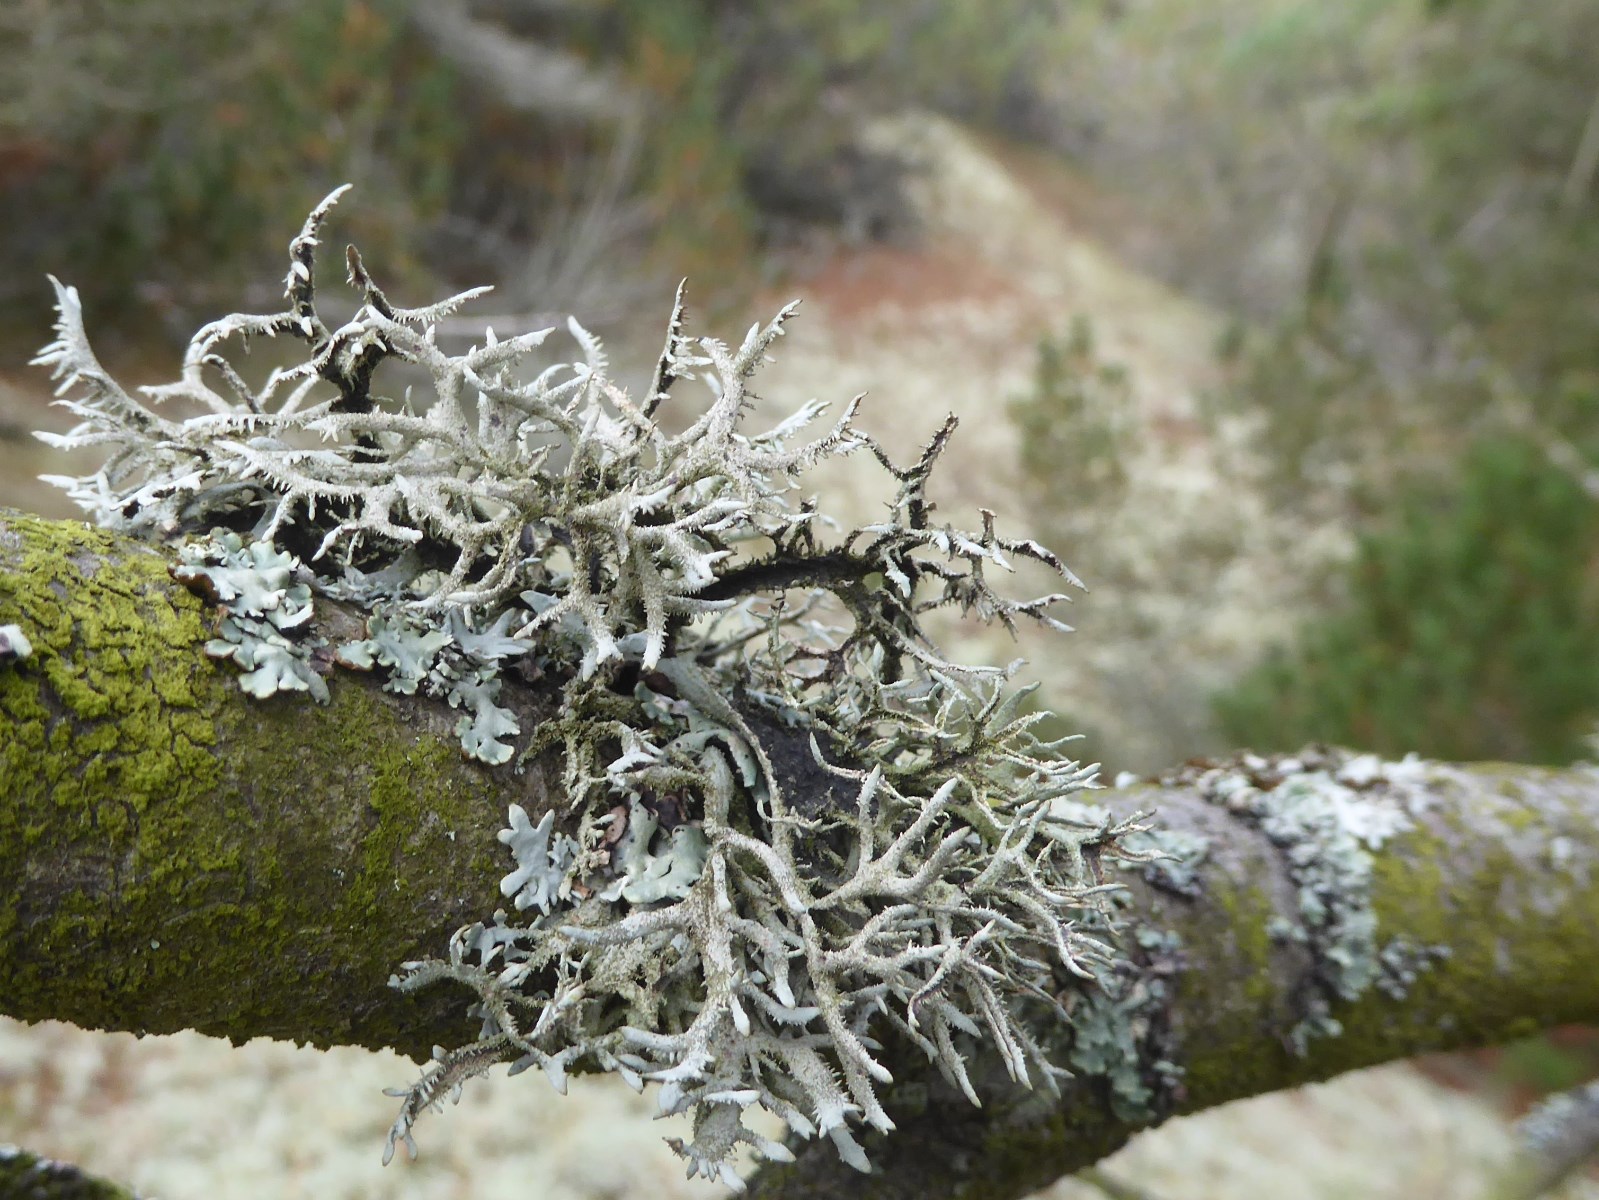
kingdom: Fungi
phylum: Ascomycota
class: Lecanoromycetes
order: Lecanorales
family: Parmeliaceae
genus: Pseudevernia
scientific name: Pseudevernia furfuracea
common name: grå fyrrelav
